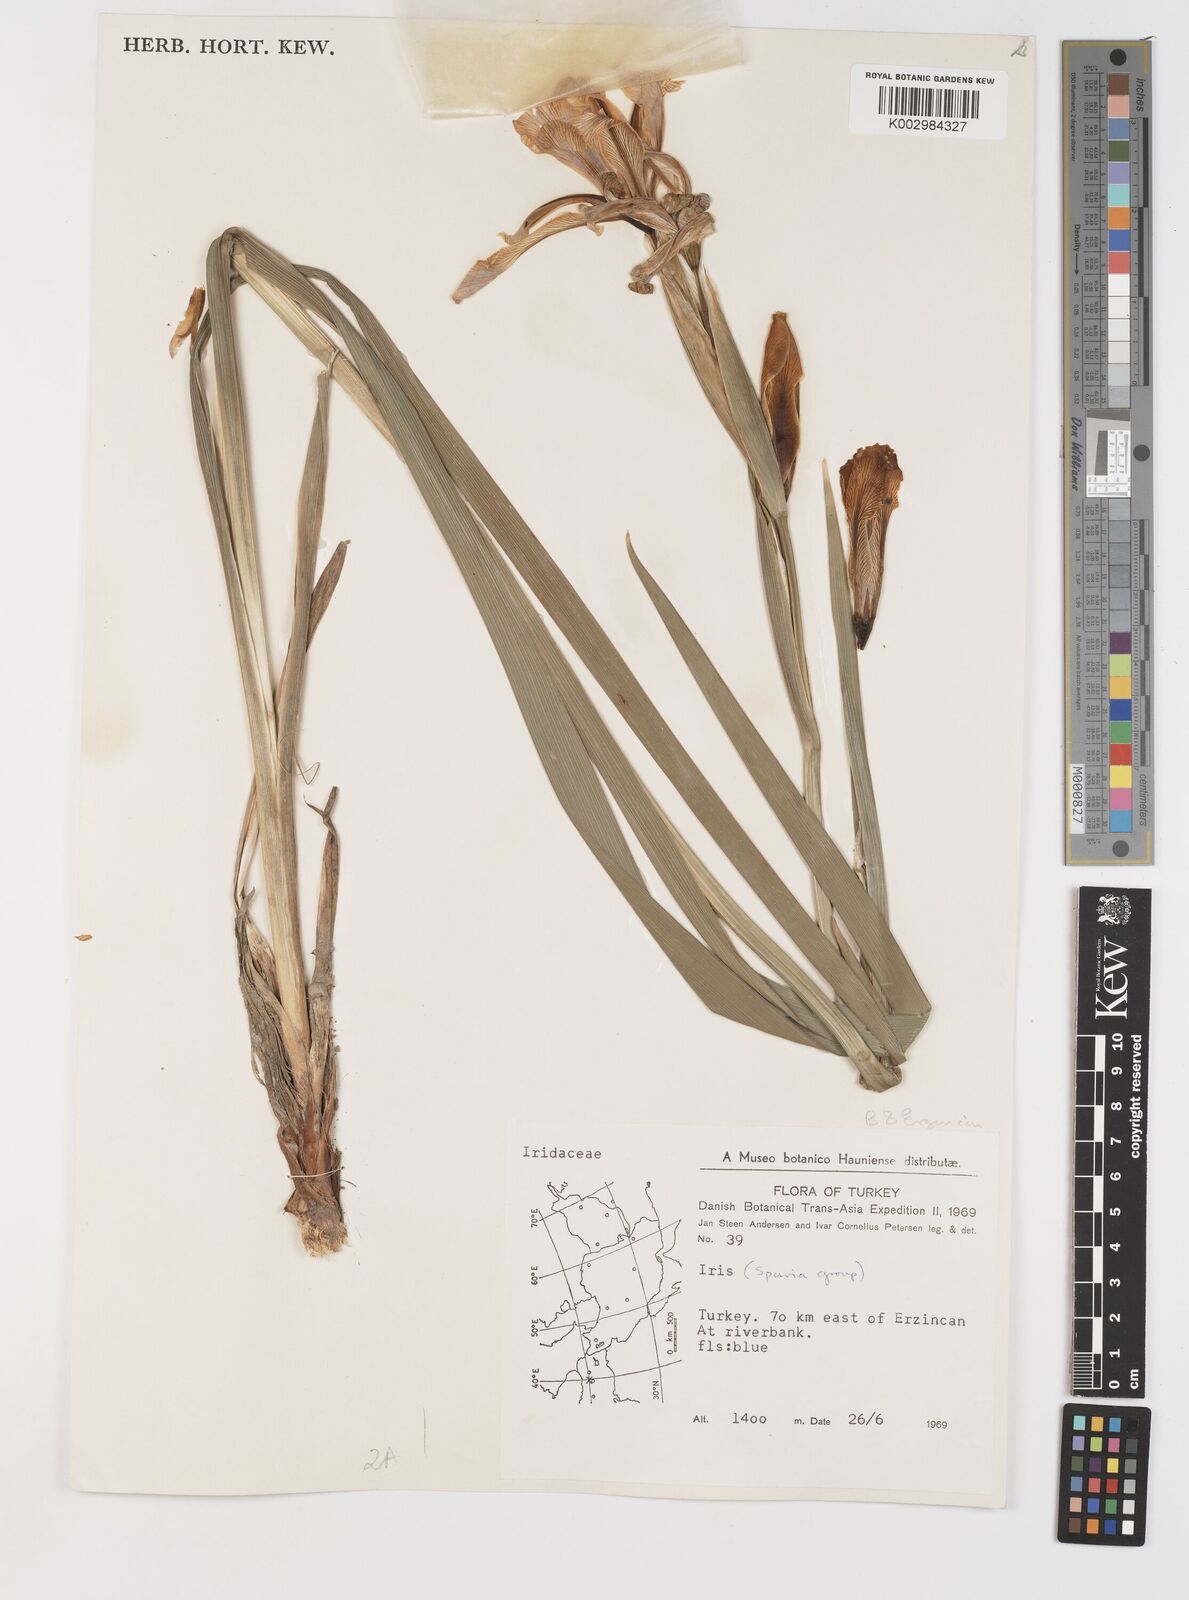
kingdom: Plantae
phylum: Tracheophyta
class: Liliopsida
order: Asparagales
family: Iridaceae
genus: Iris
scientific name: Iris spuria
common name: Blue iris
